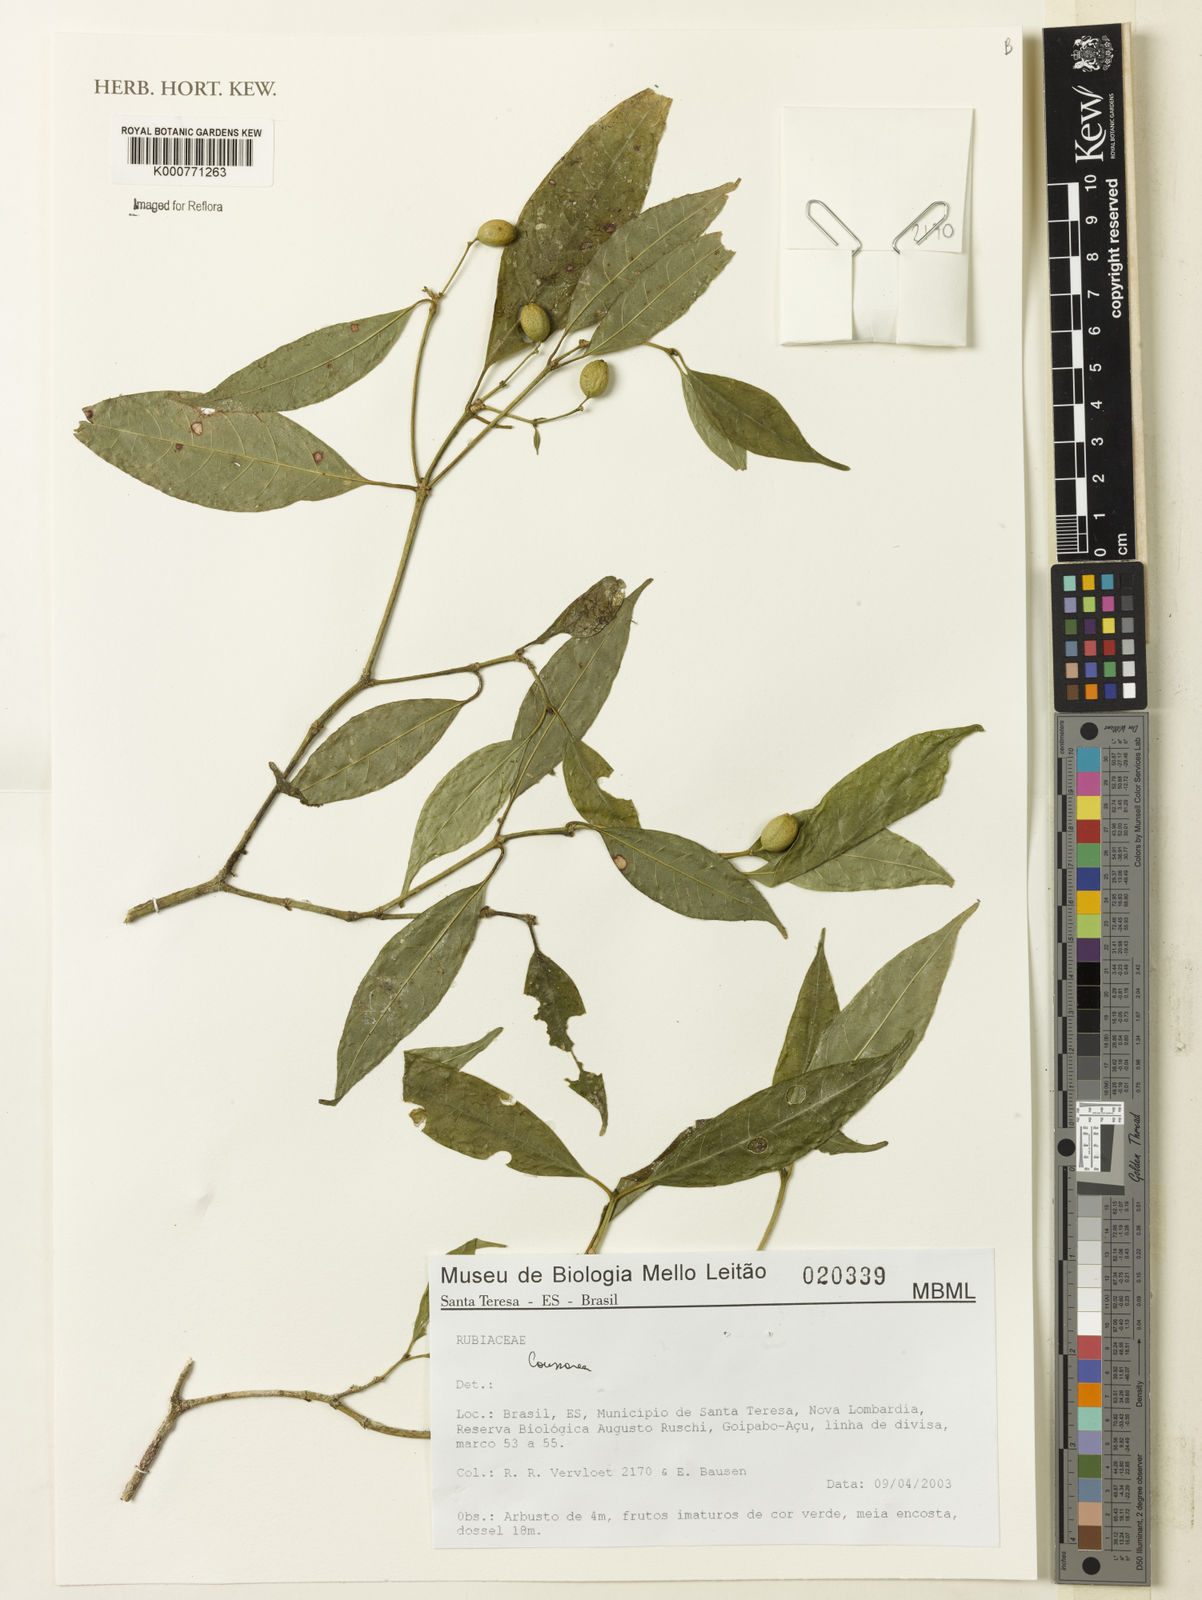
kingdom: Plantae
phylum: Tracheophyta
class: Magnoliopsida
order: Gentianales
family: Rubiaceae
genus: Coussarea
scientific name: Coussarea
